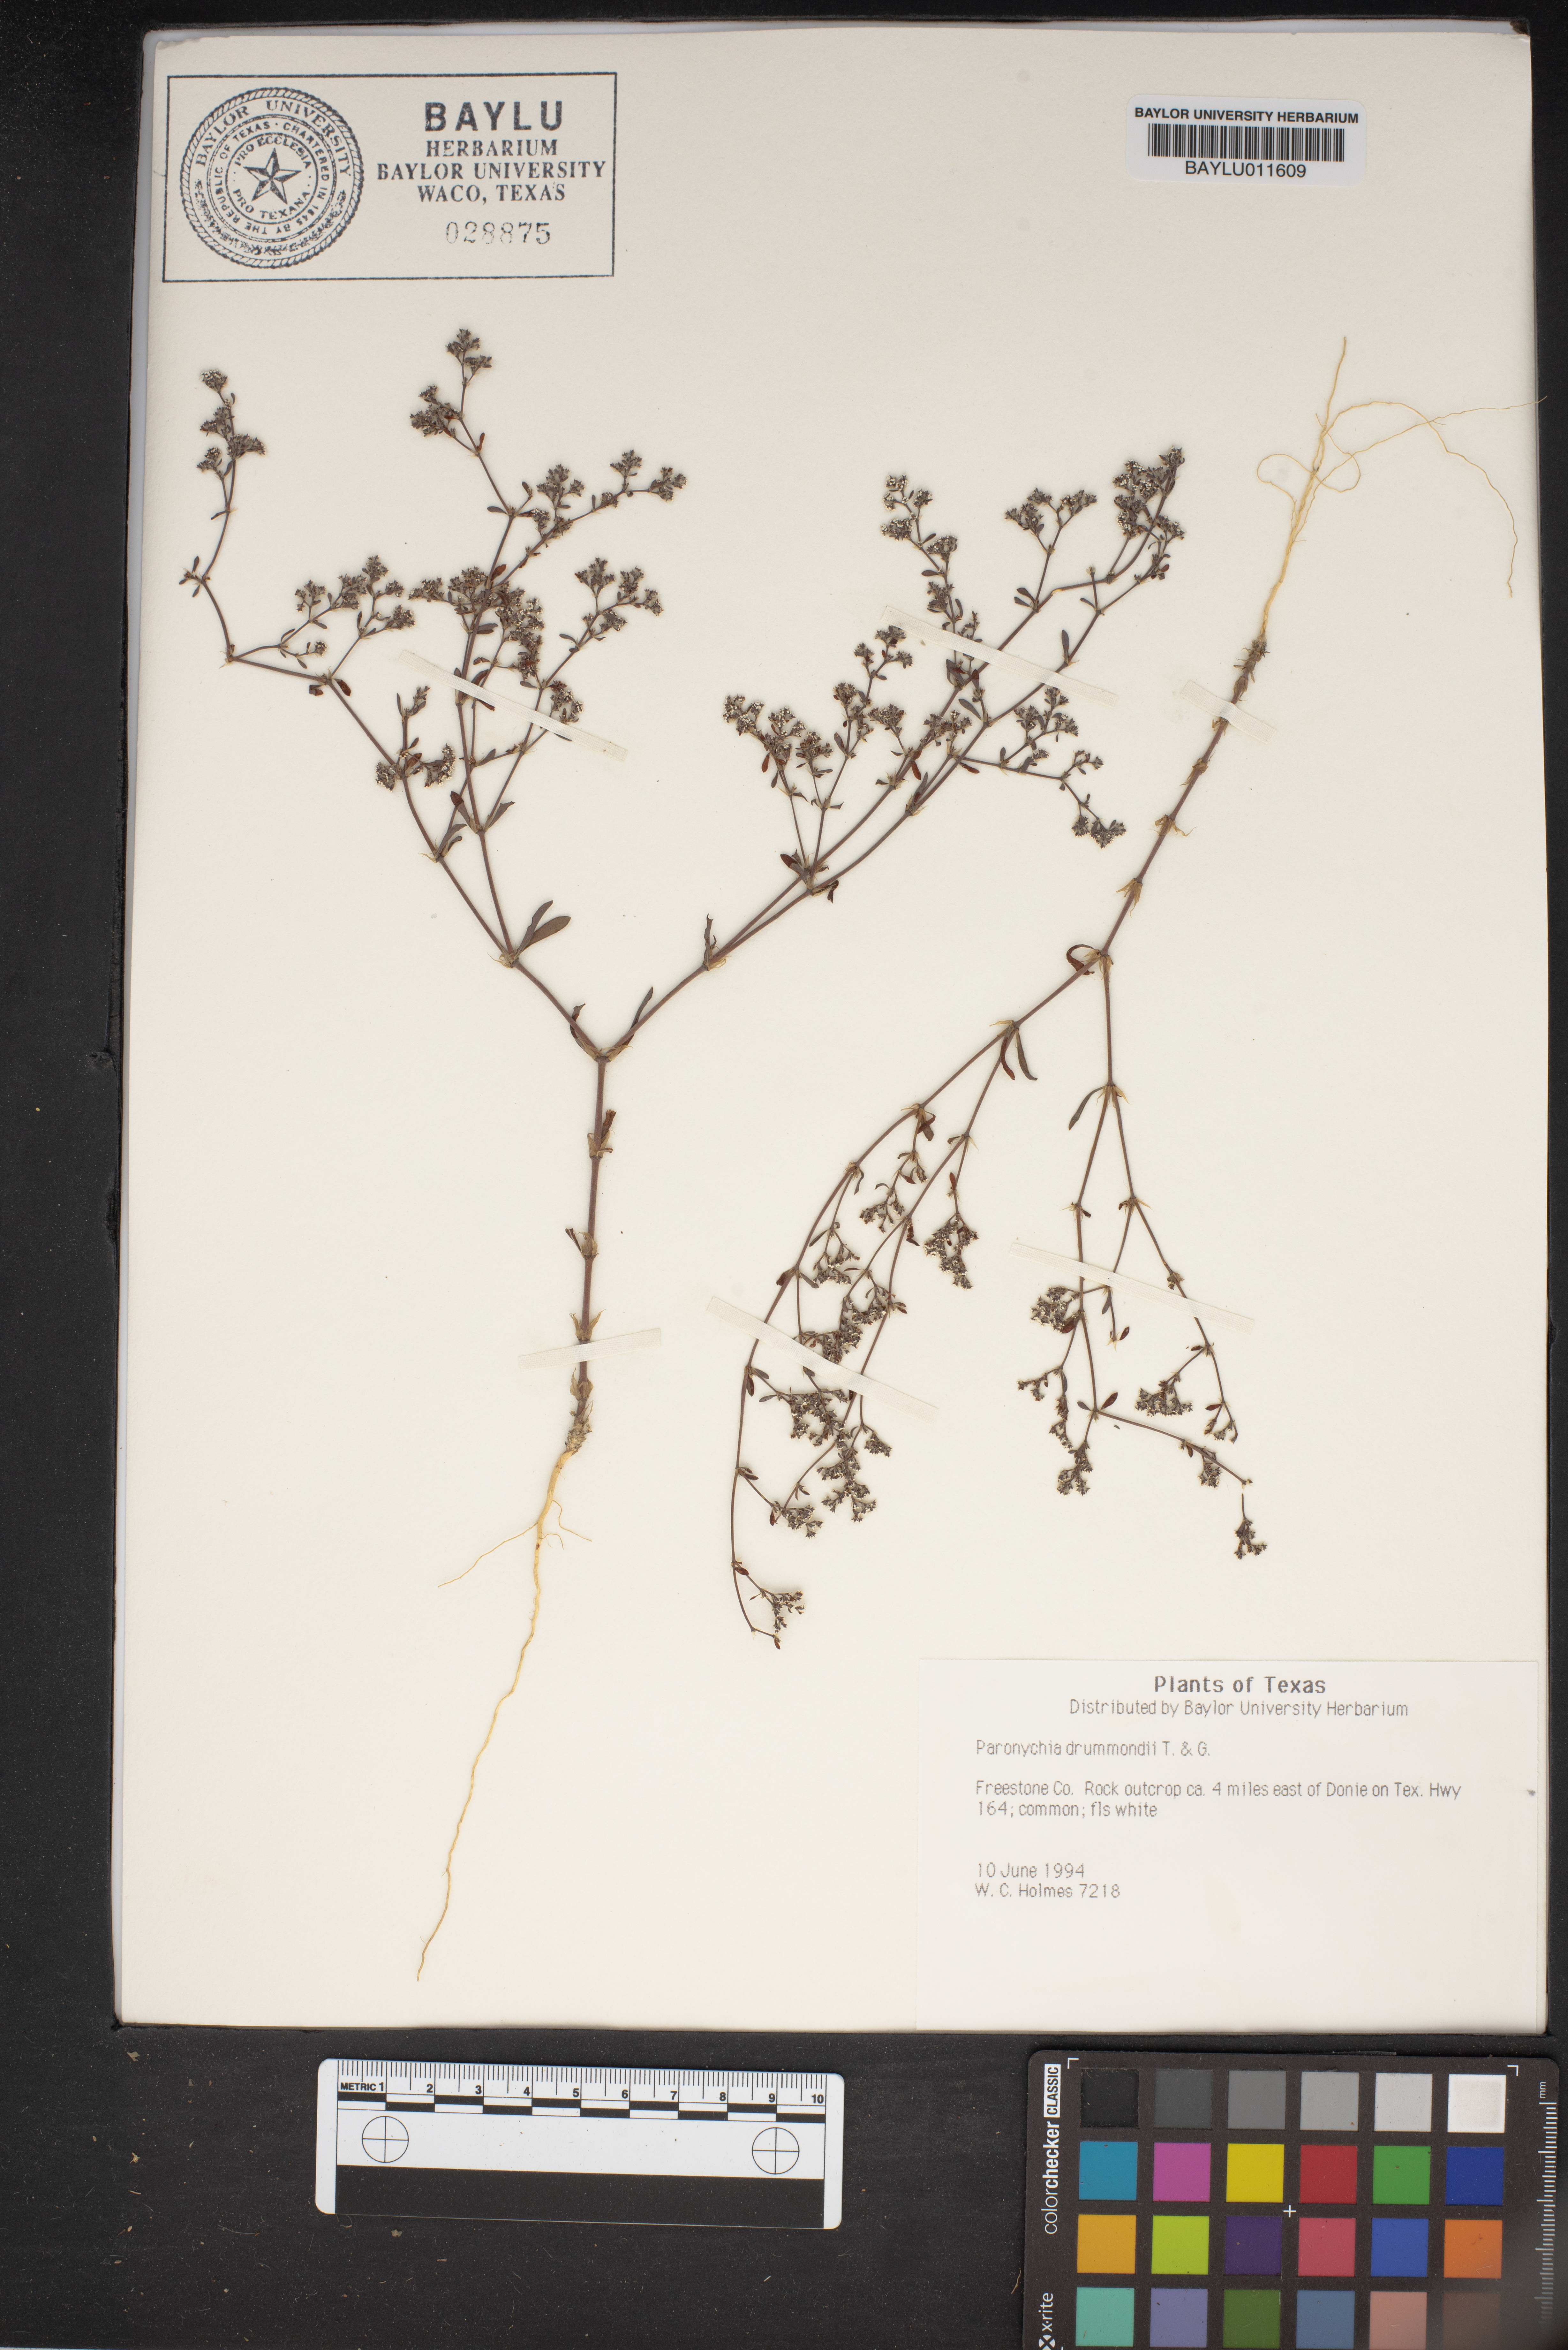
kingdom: Plantae
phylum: Tracheophyta
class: Magnoliopsida
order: Caryophyllales
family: Caryophyllaceae
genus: Paronychia
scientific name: Paronychia drummondii
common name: Drummond's nailwort
